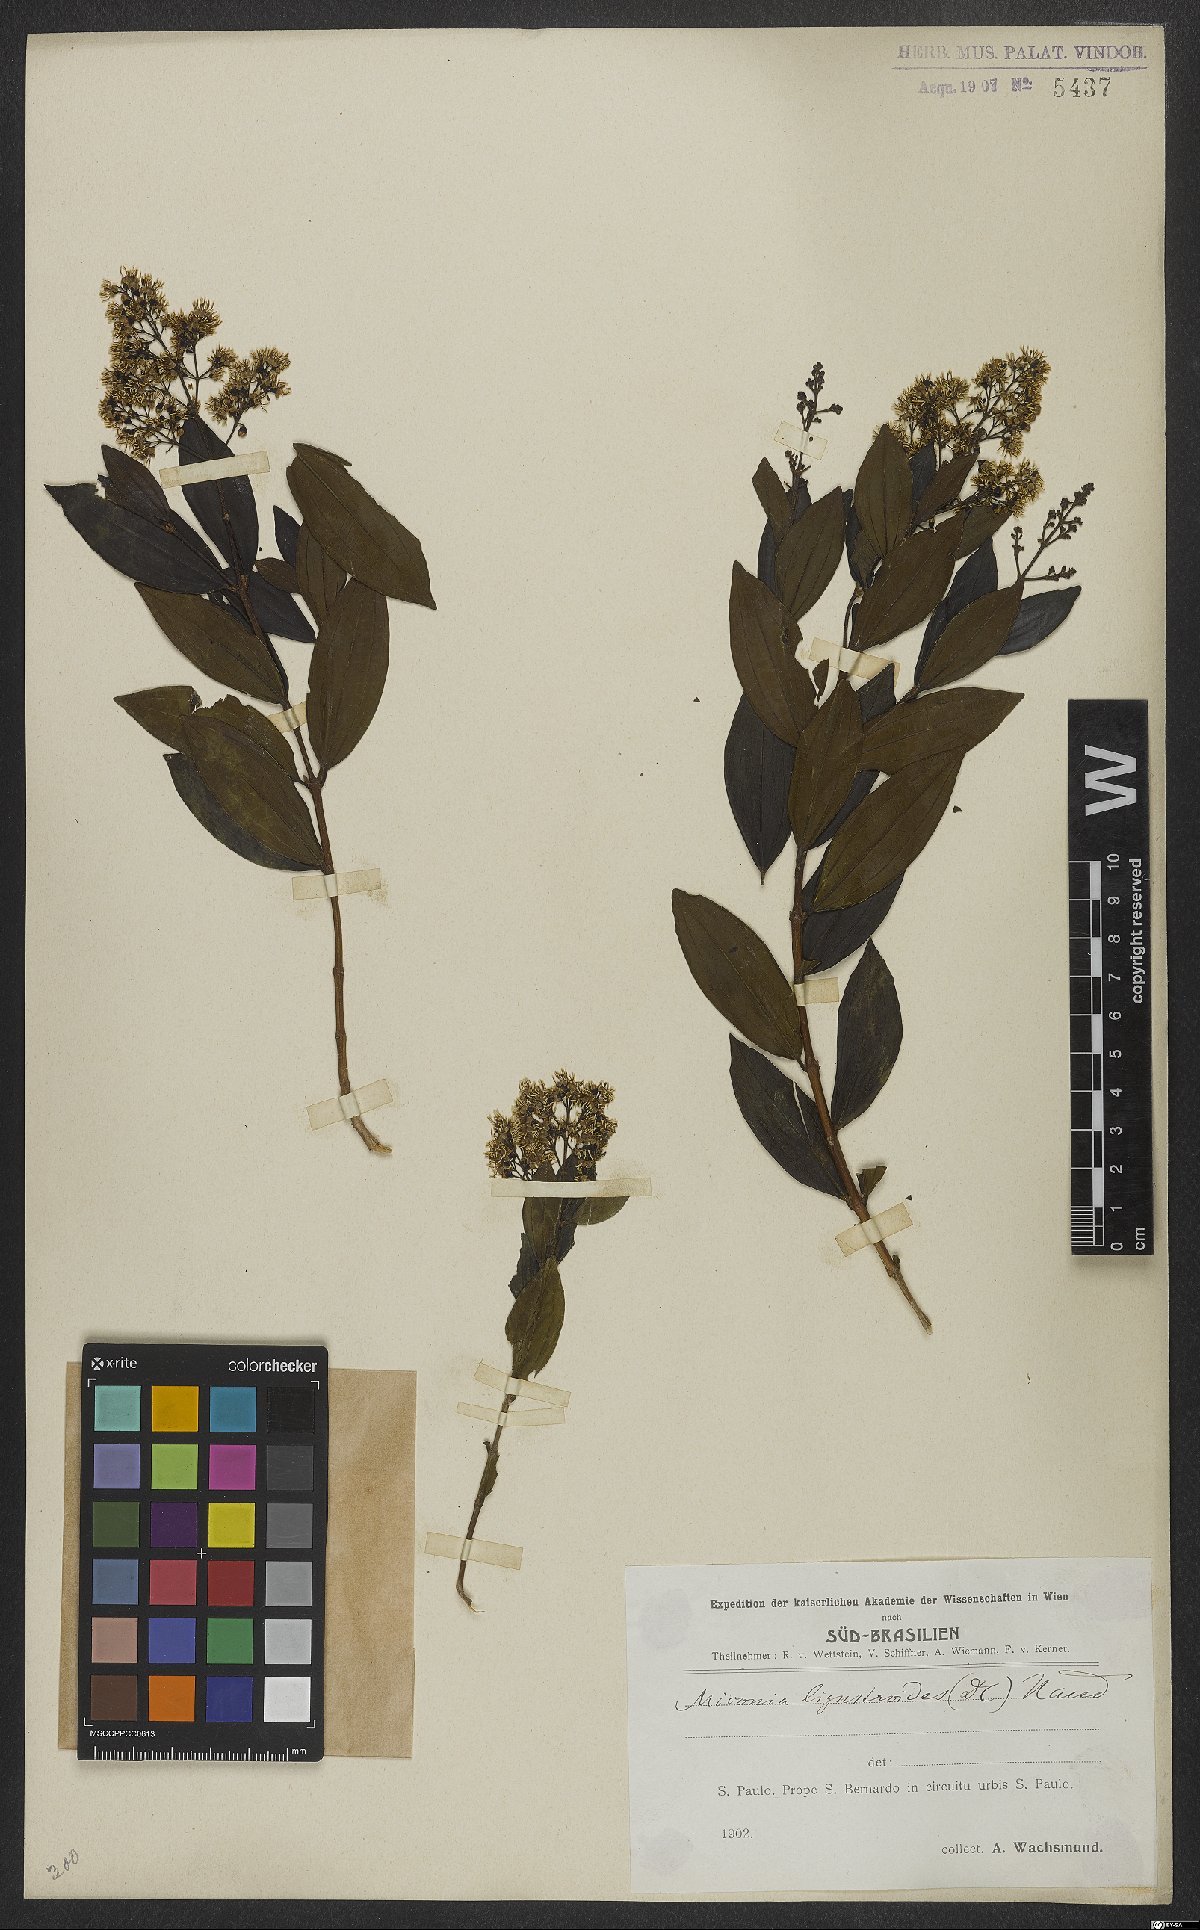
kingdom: Plantae
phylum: Tracheophyta
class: Magnoliopsida
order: Myrtales
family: Melastomataceae
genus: Miconia
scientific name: Miconia ligustroides
